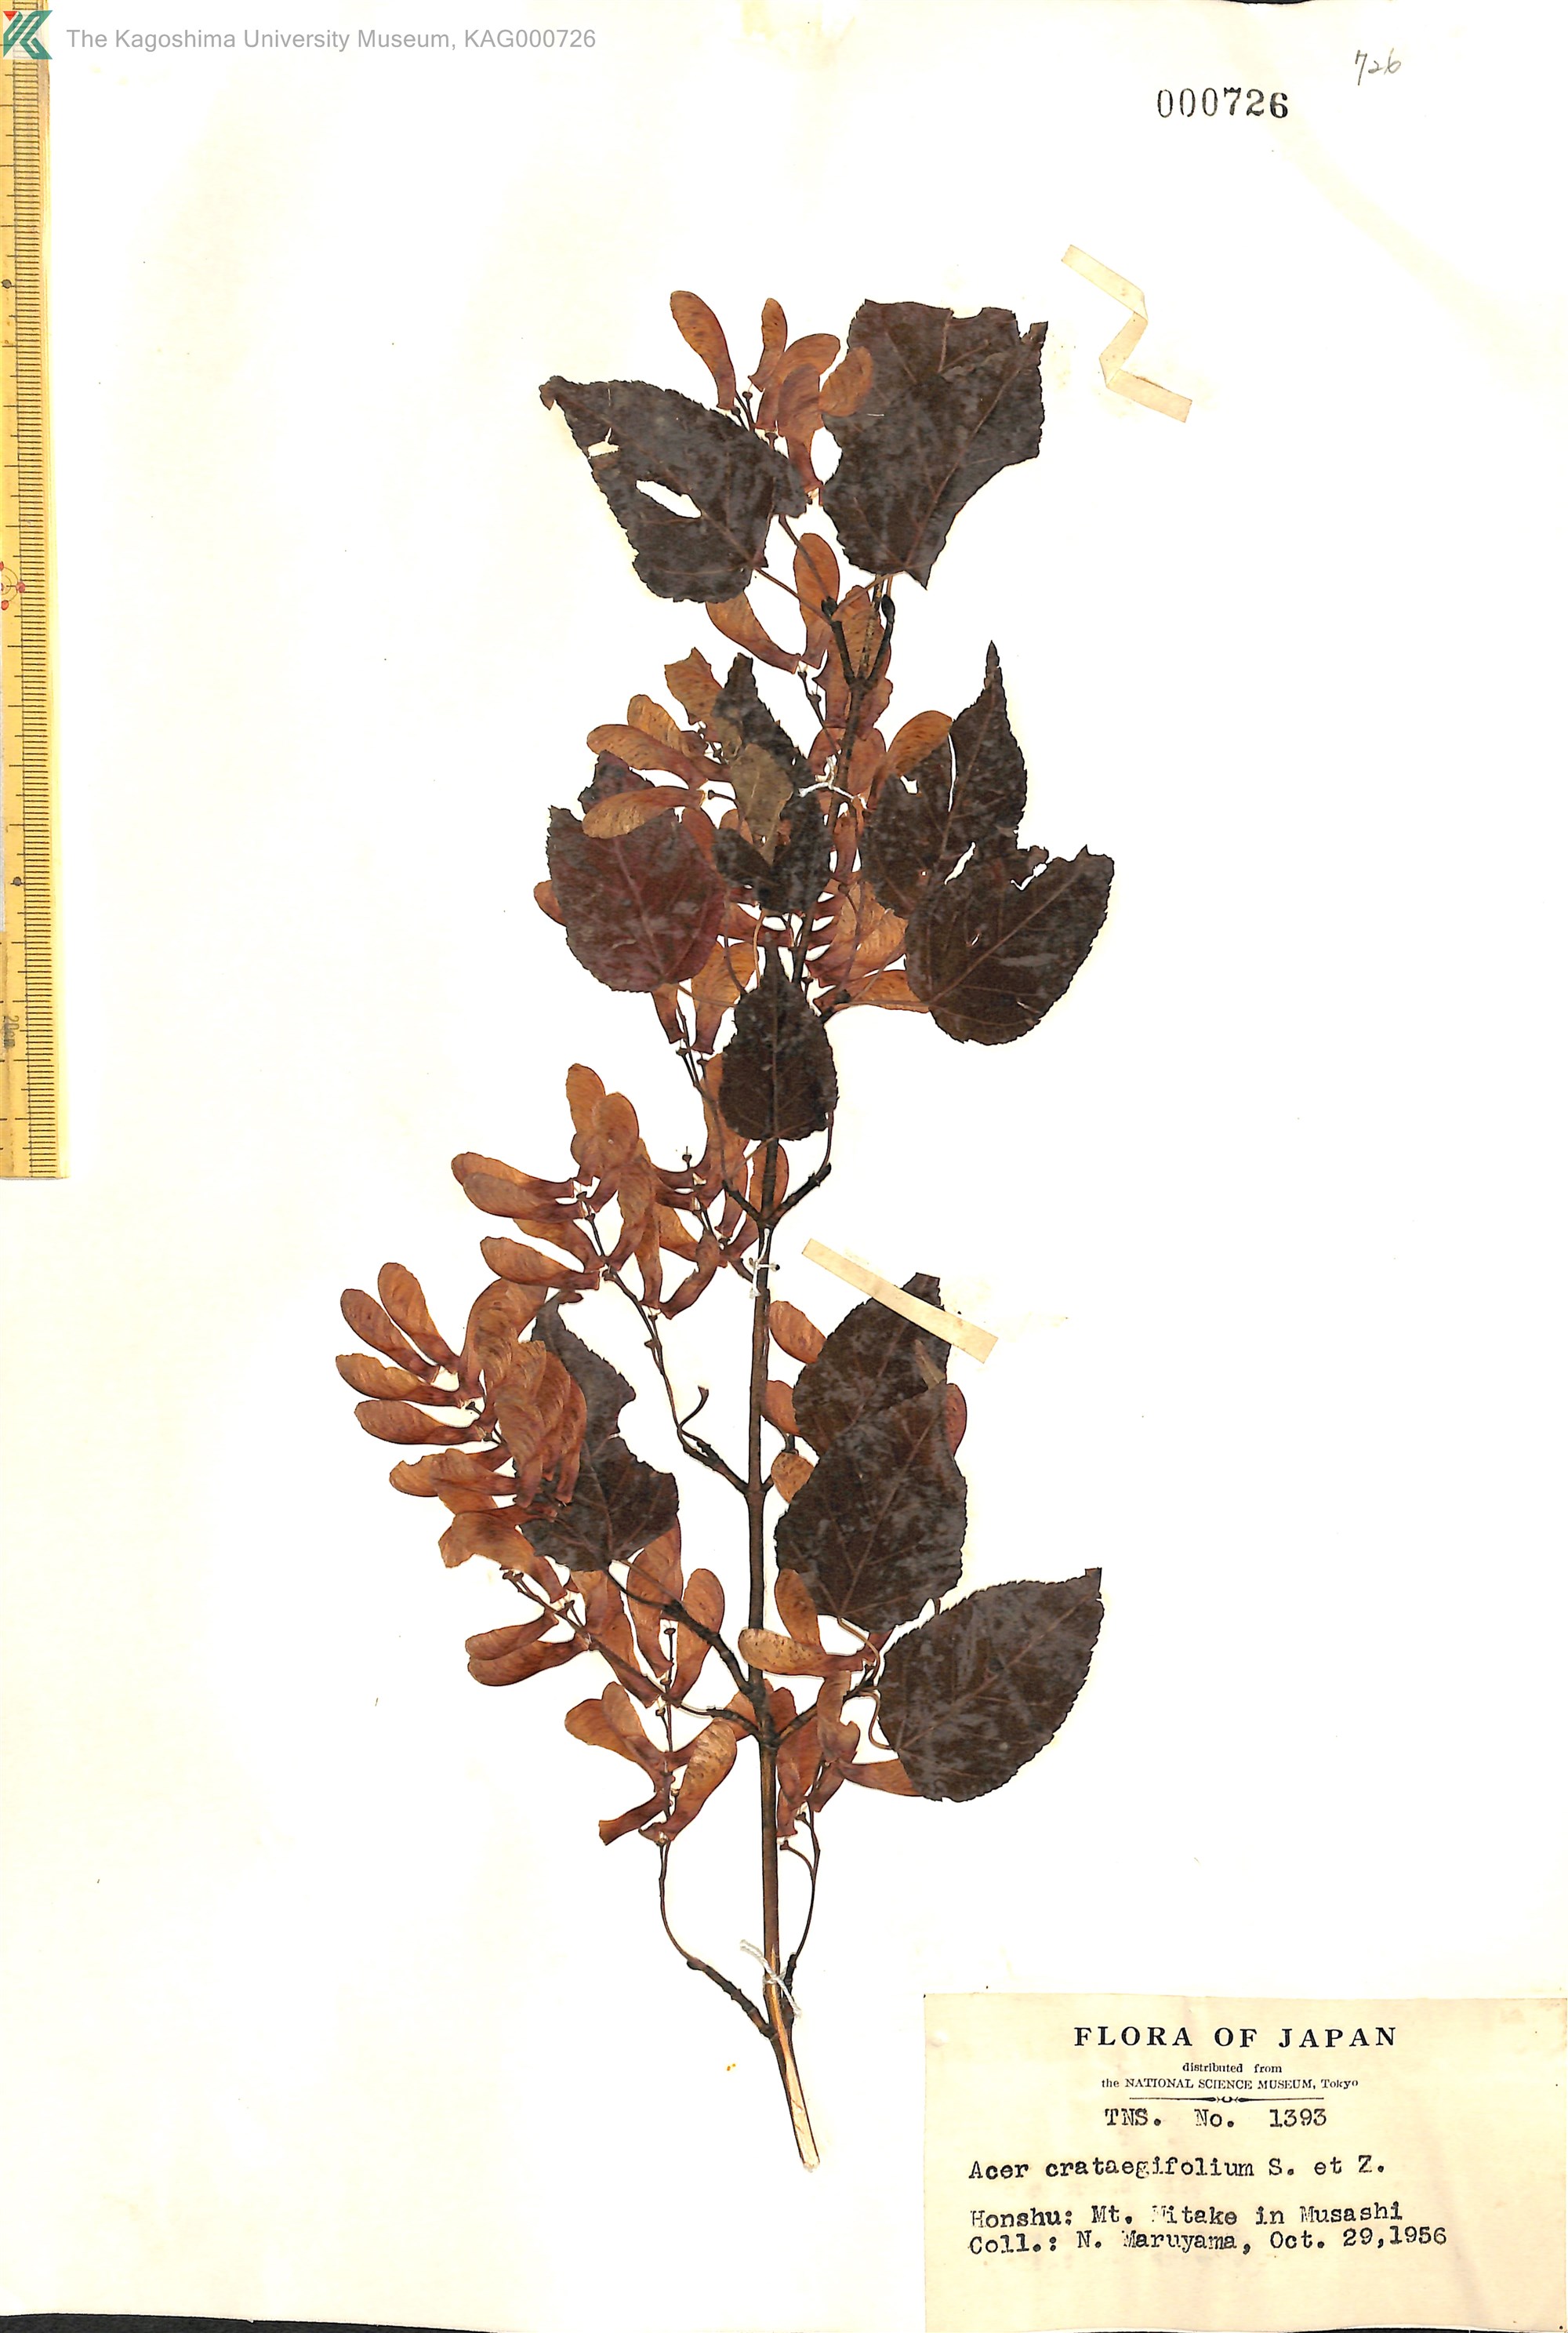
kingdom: Plantae
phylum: Tracheophyta
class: Magnoliopsida
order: Sapindales
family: Sapindaceae
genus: Acer
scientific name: Acer crataegifolium
